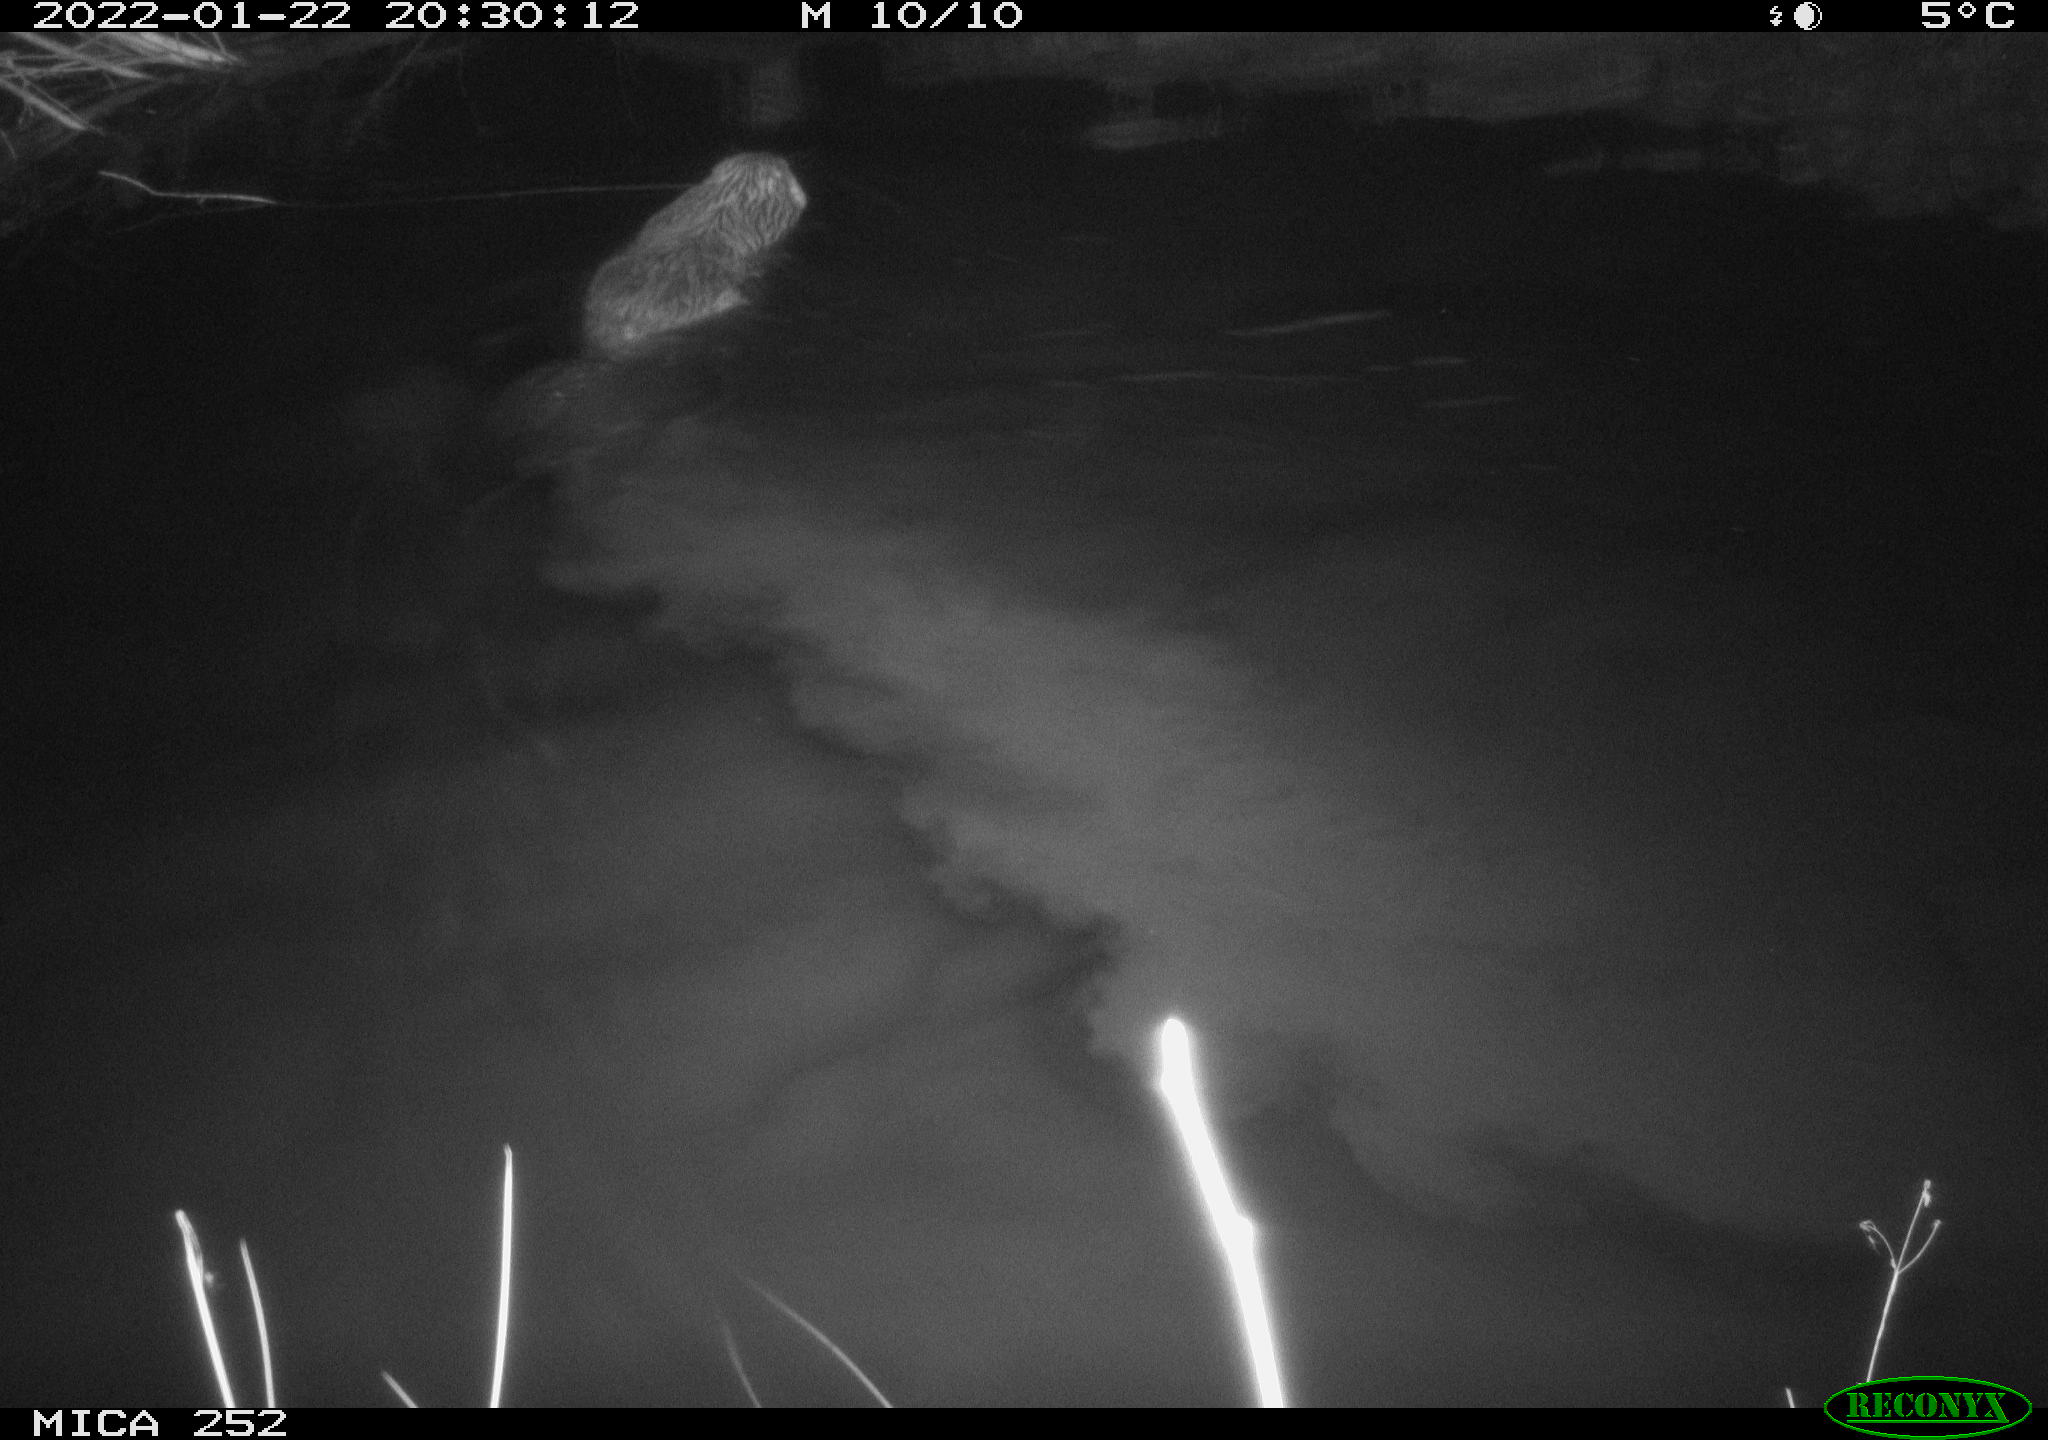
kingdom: Animalia
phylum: Chordata
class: Mammalia
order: Rodentia
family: Castoridae
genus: Castor
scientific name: Castor fiber
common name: Eurasian beaver
